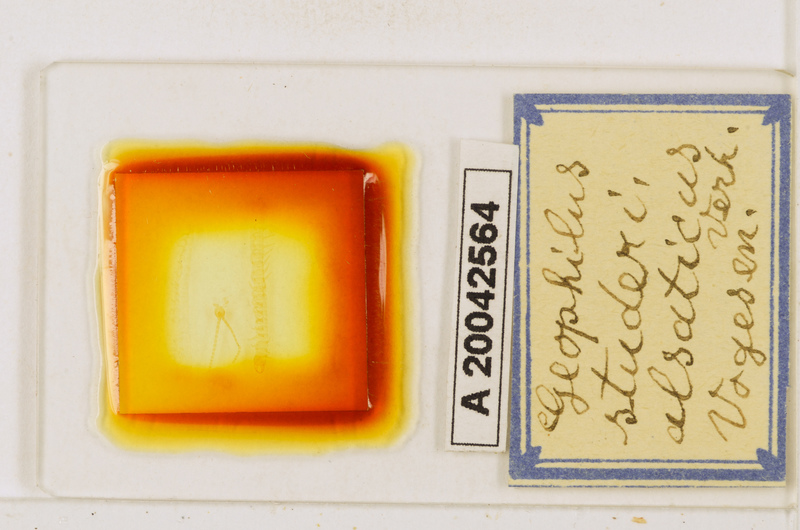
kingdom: Animalia
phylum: Arthropoda
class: Chilopoda
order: Geophilomorpha
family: Geophilidae
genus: Geophilus
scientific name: Geophilus studeri
